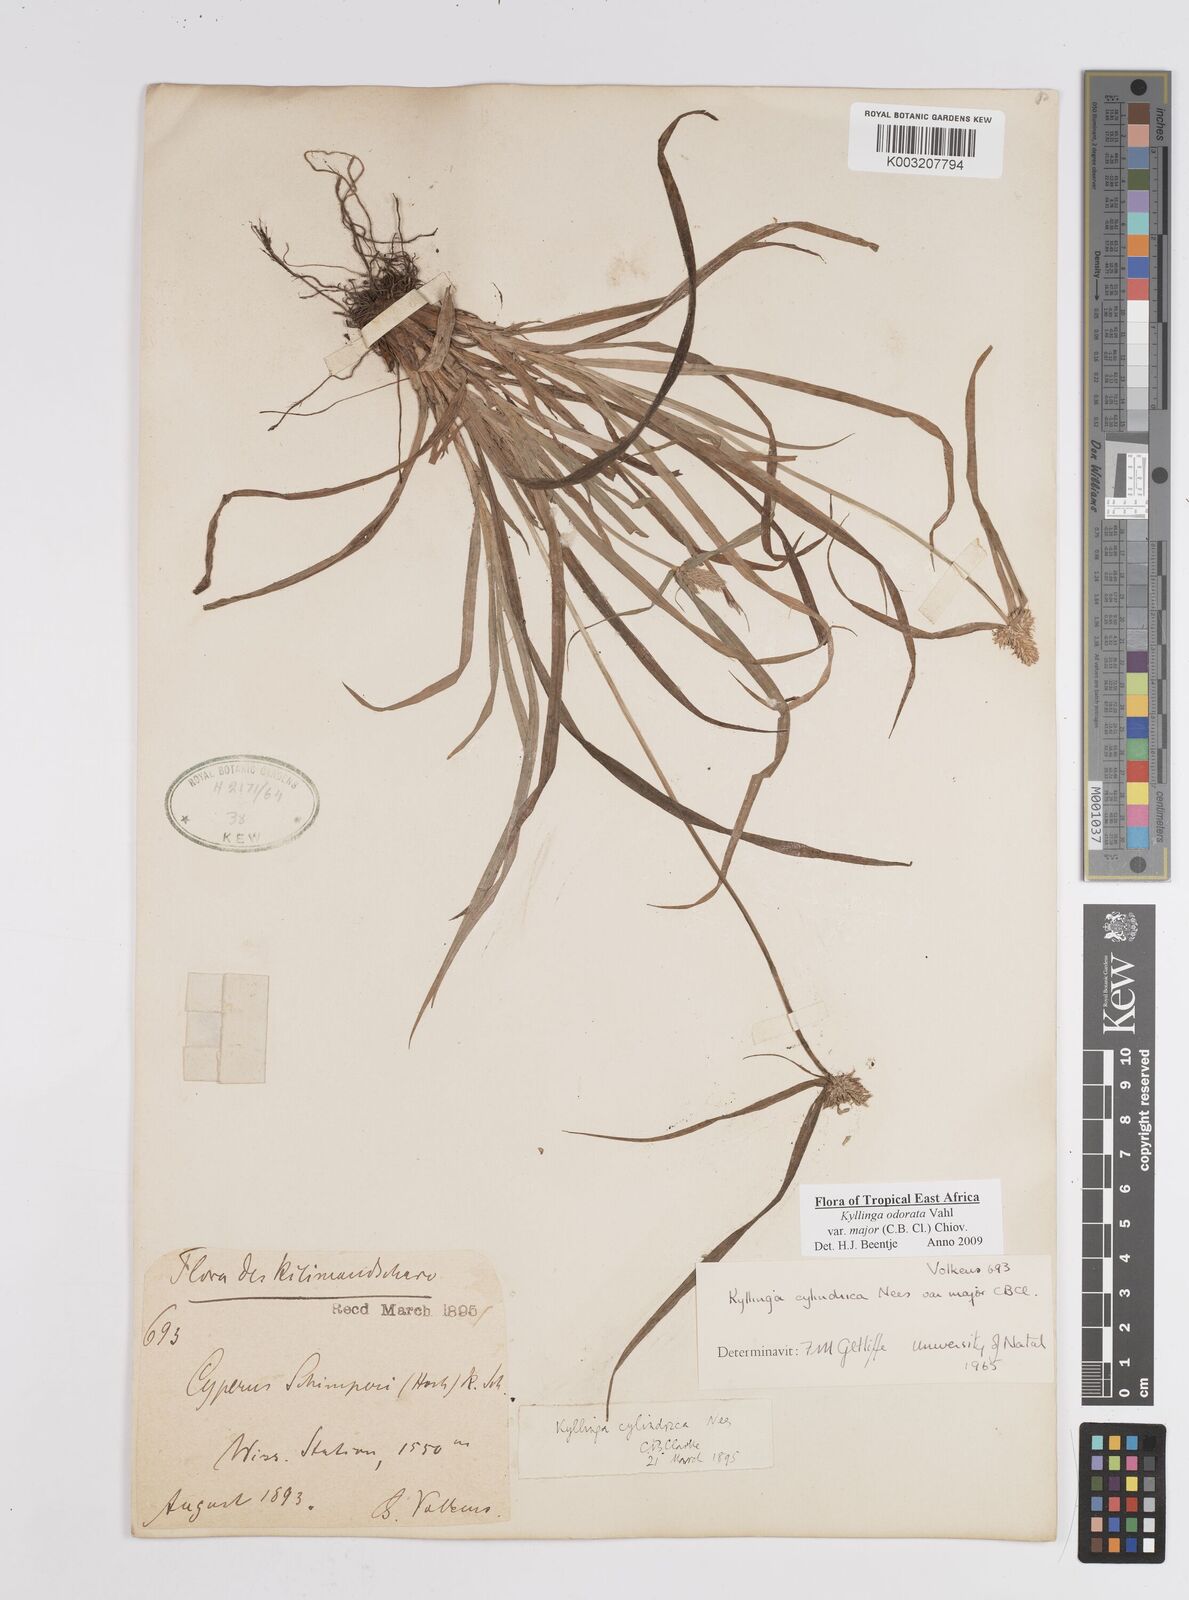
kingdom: Plantae
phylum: Tracheophyta
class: Liliopsida
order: Poales
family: Cyperaceae
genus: Cyperus
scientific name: Cyperus
